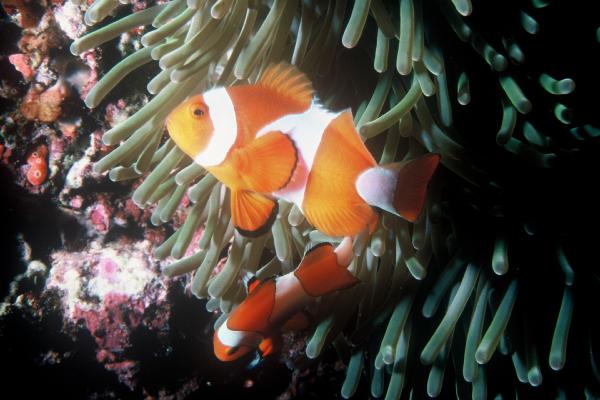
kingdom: Animalia
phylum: Chordata
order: Perciformes
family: Pomacentridae
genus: Amphiprion
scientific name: Amphiprion ocellaris
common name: Clown anemonefish
